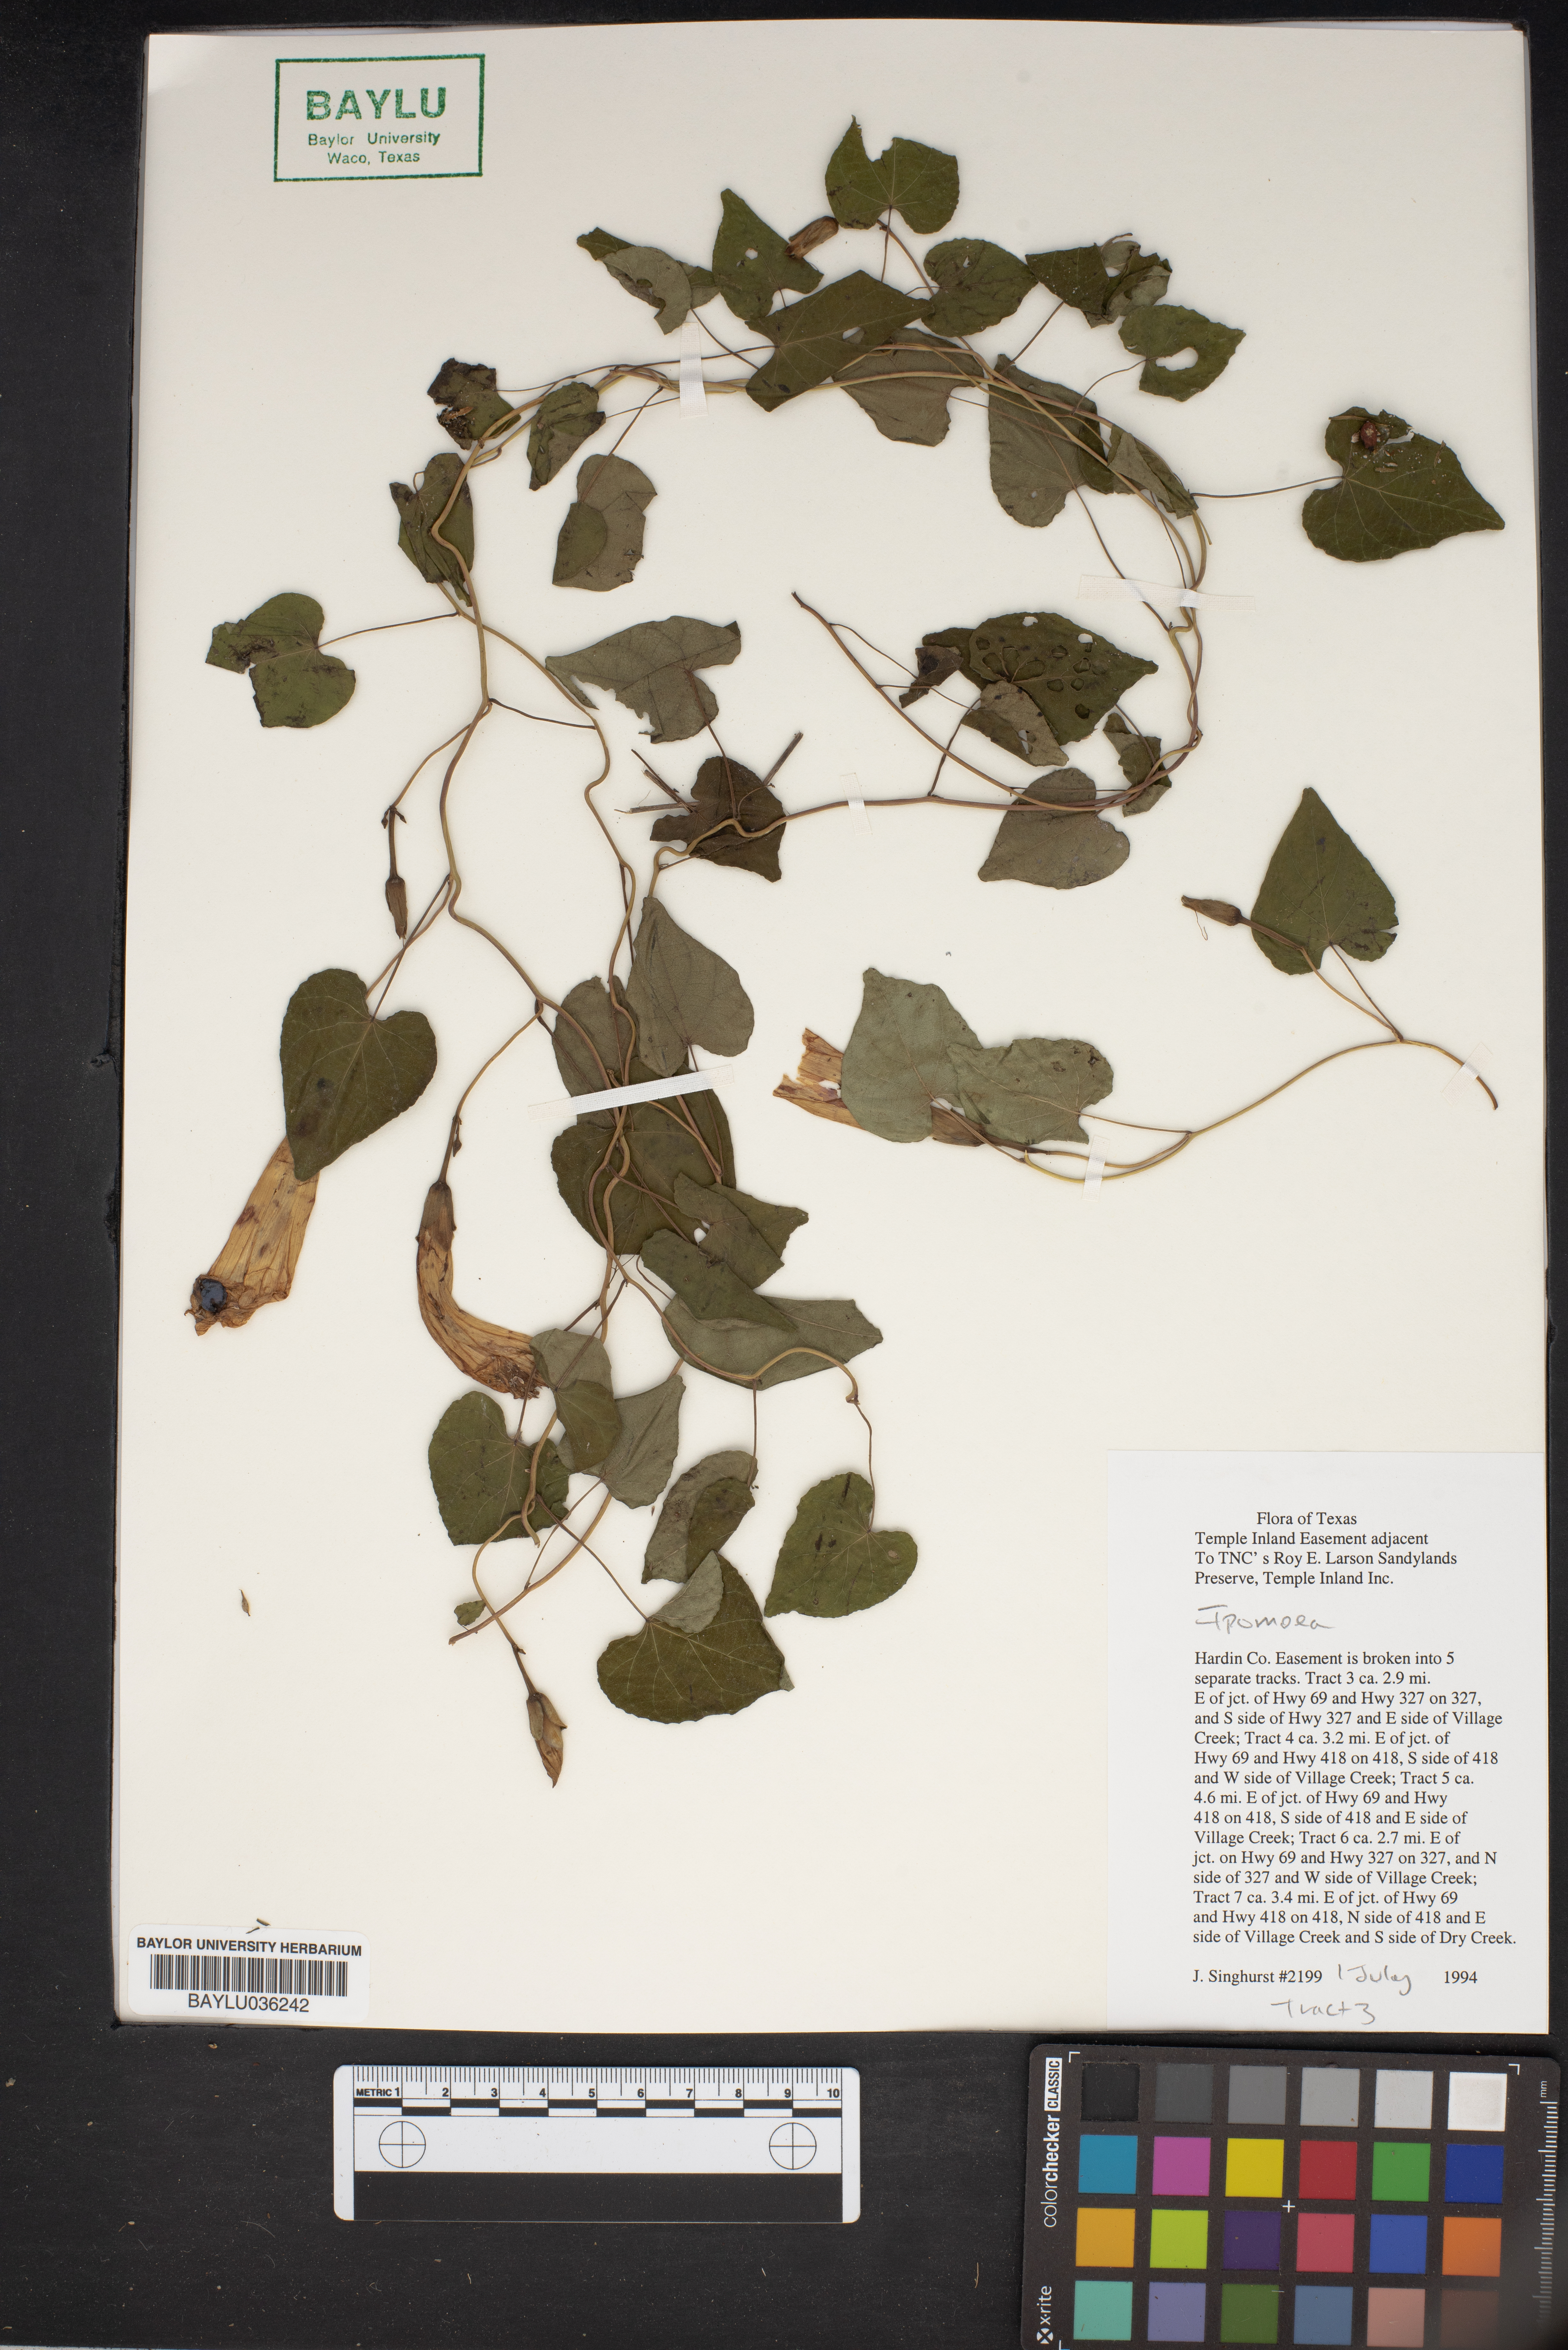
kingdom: Plantae
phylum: Tracheophyta
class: Magnoliopsida
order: Solanales
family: Convolvulaceae
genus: Ipomoea
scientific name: Ipomoea
